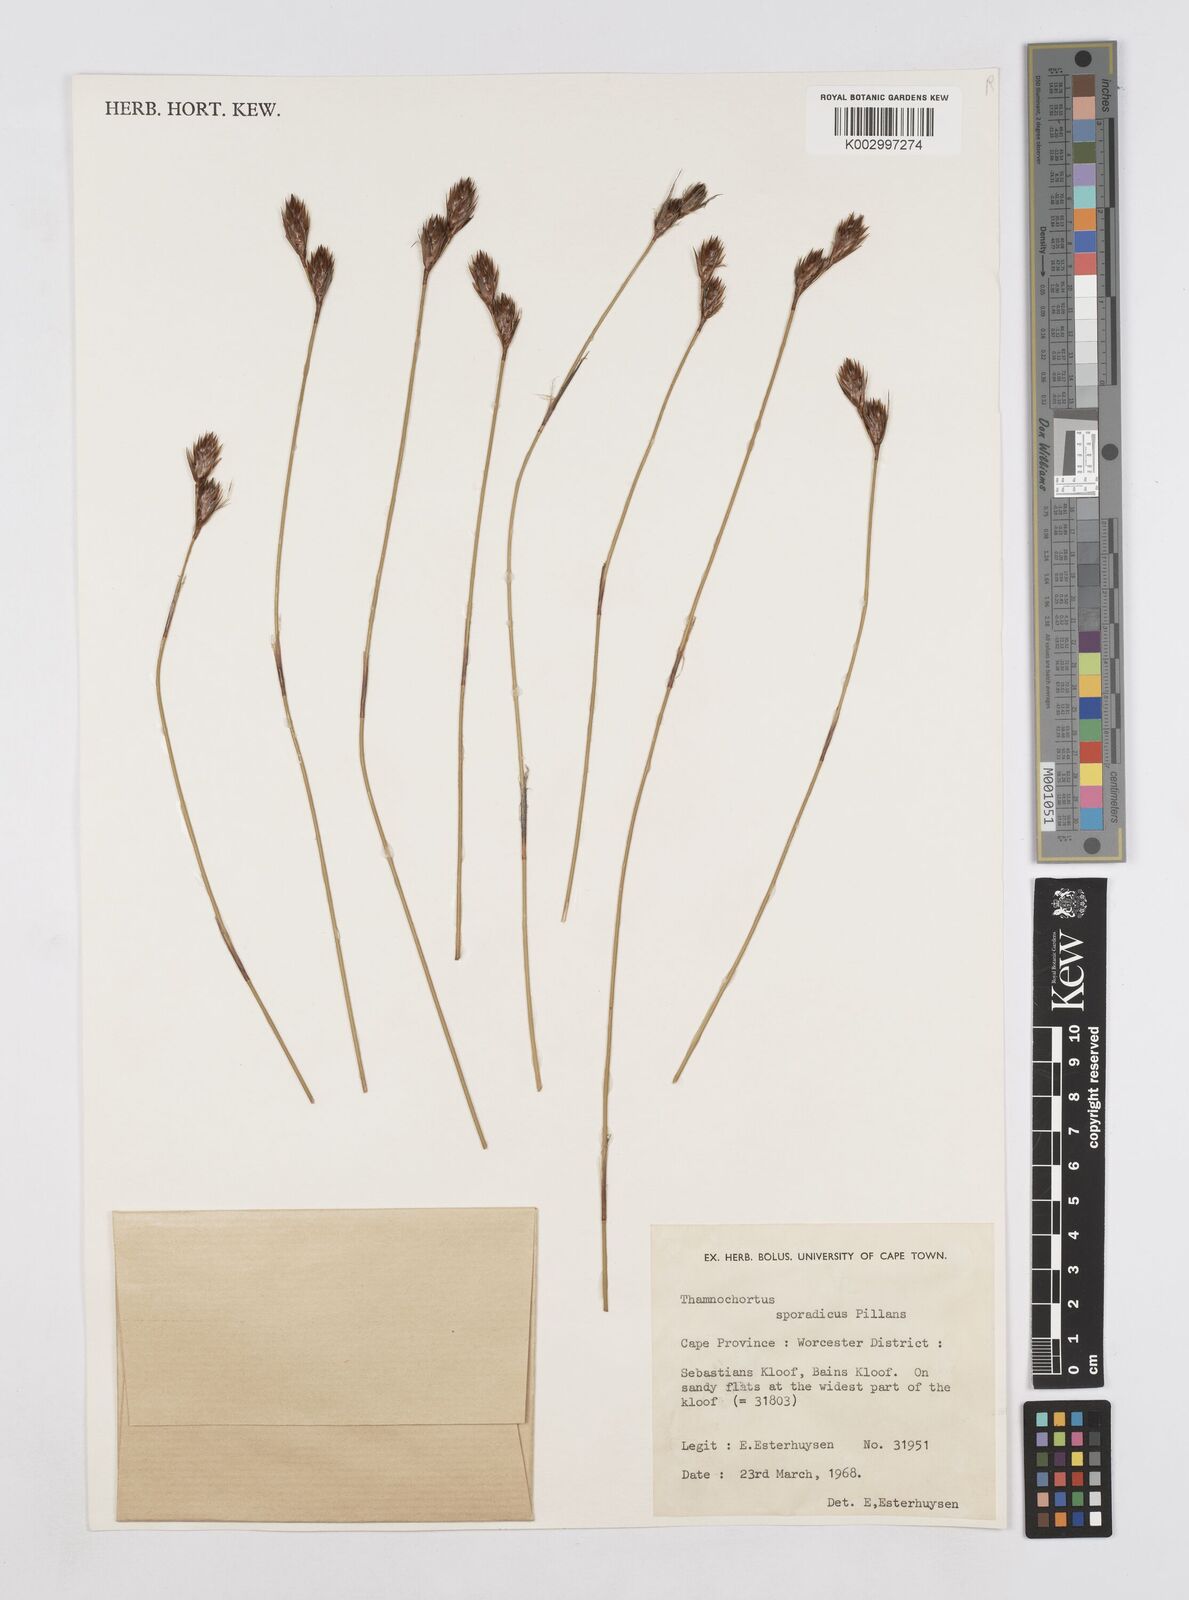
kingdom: Plantae
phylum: Tracheophyta
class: Liliopsida
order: Poales
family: Restionaceae
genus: Thamnochortus
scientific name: Thamnochortus sporadicus
